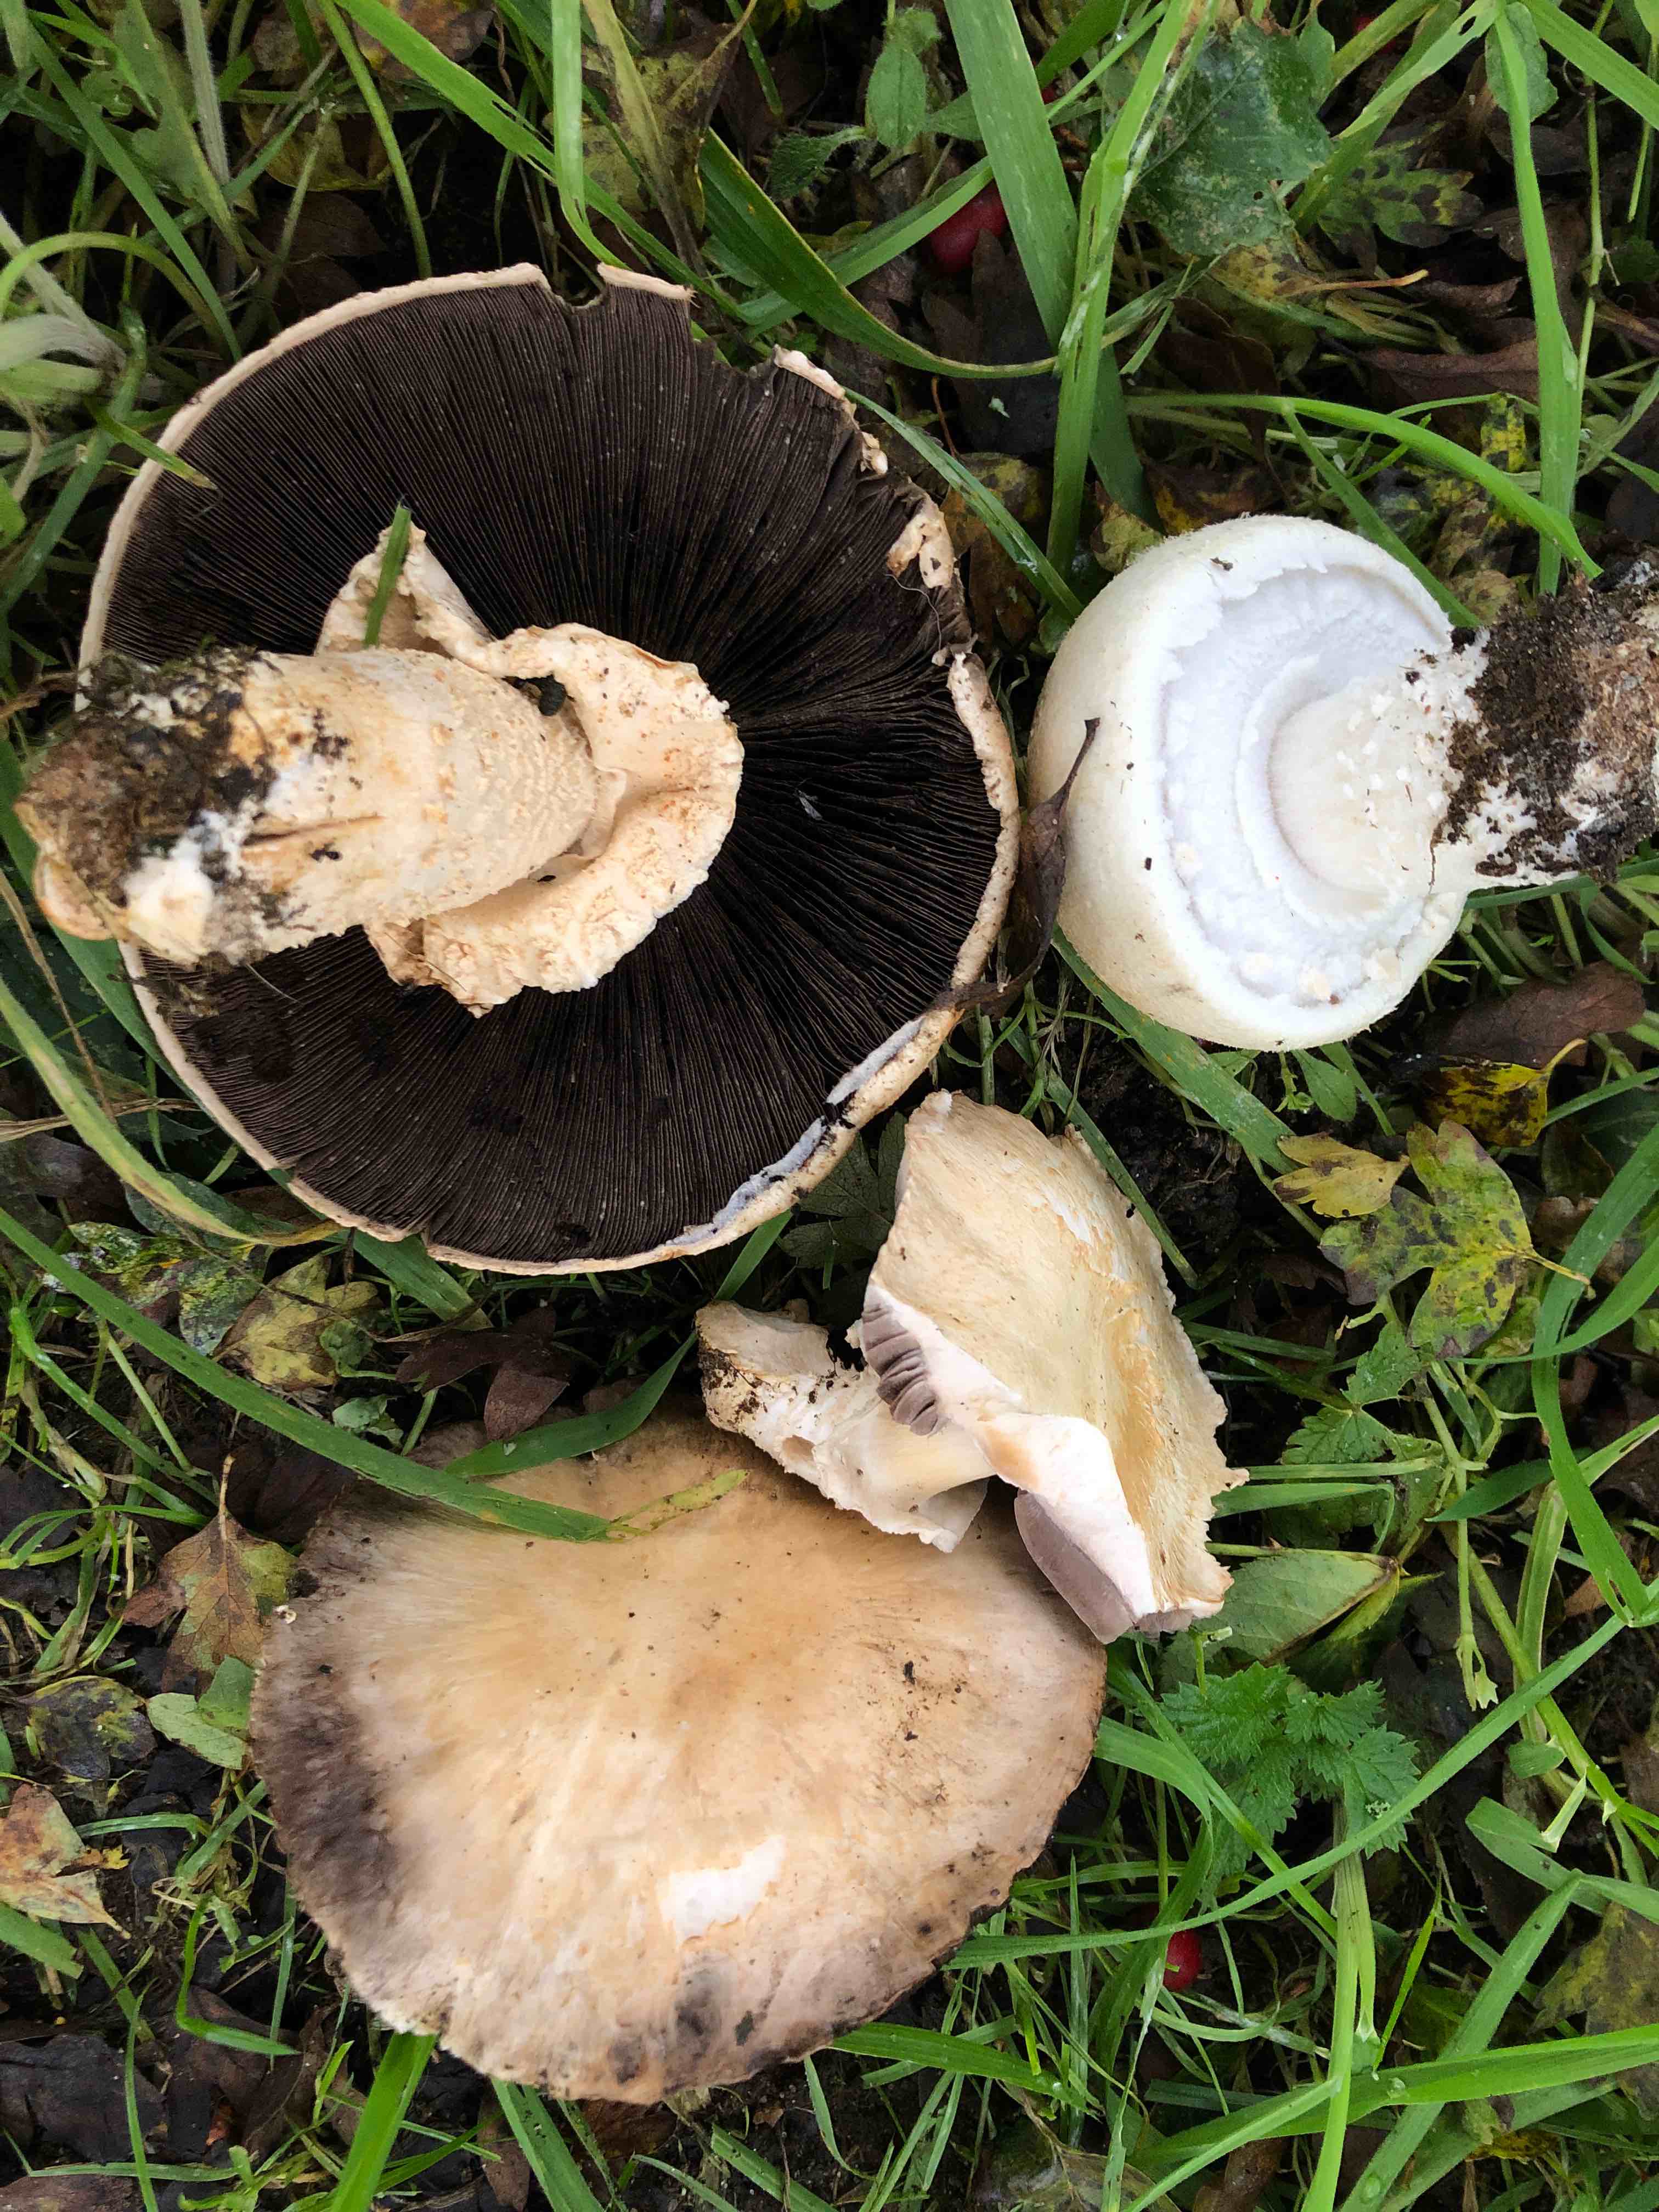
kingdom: Fungi
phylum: Basidiomycota
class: Agaricomycetes
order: Agaricales
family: Agaricaceae
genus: Agaricus
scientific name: Agaricus arvensis
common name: ager-champignon
